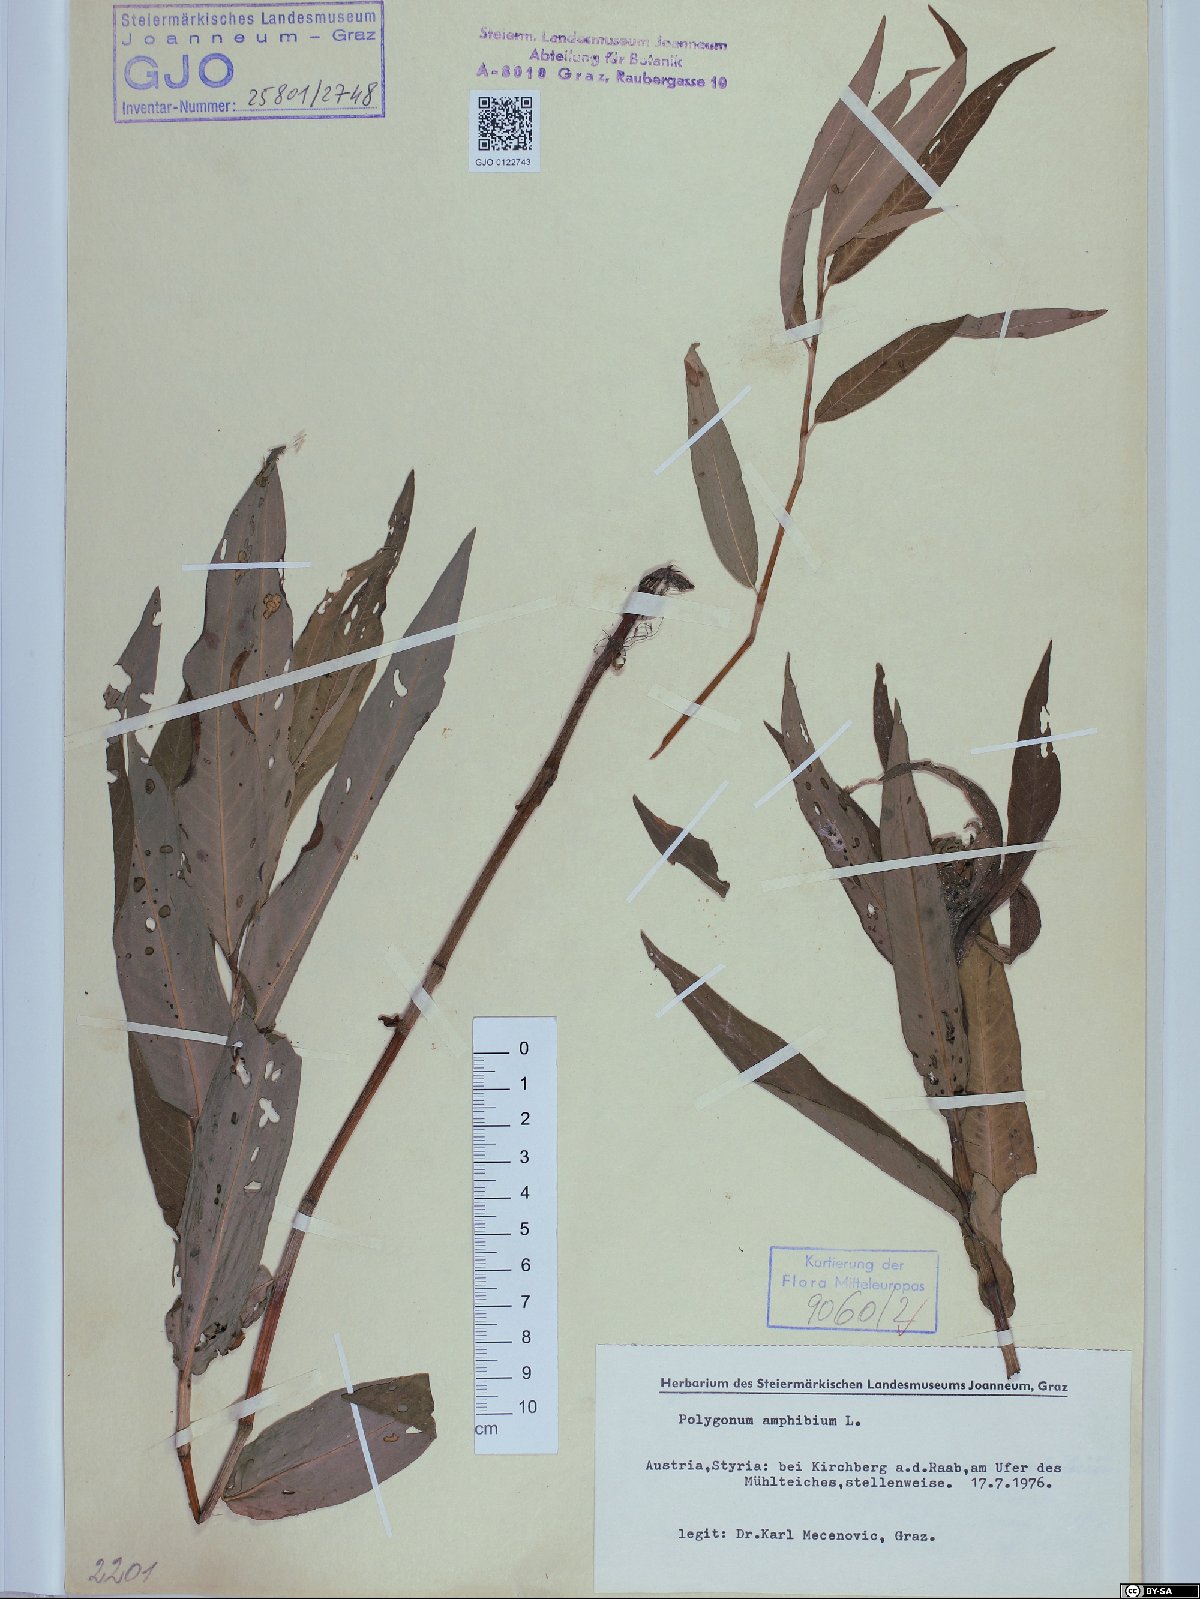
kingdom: Plantae
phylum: Tracheophyta
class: Magnoliopsida
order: Caryophyllales
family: Polygonaceae
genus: Persicaria
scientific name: Persicaria amphibia
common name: Amphibious bistort
